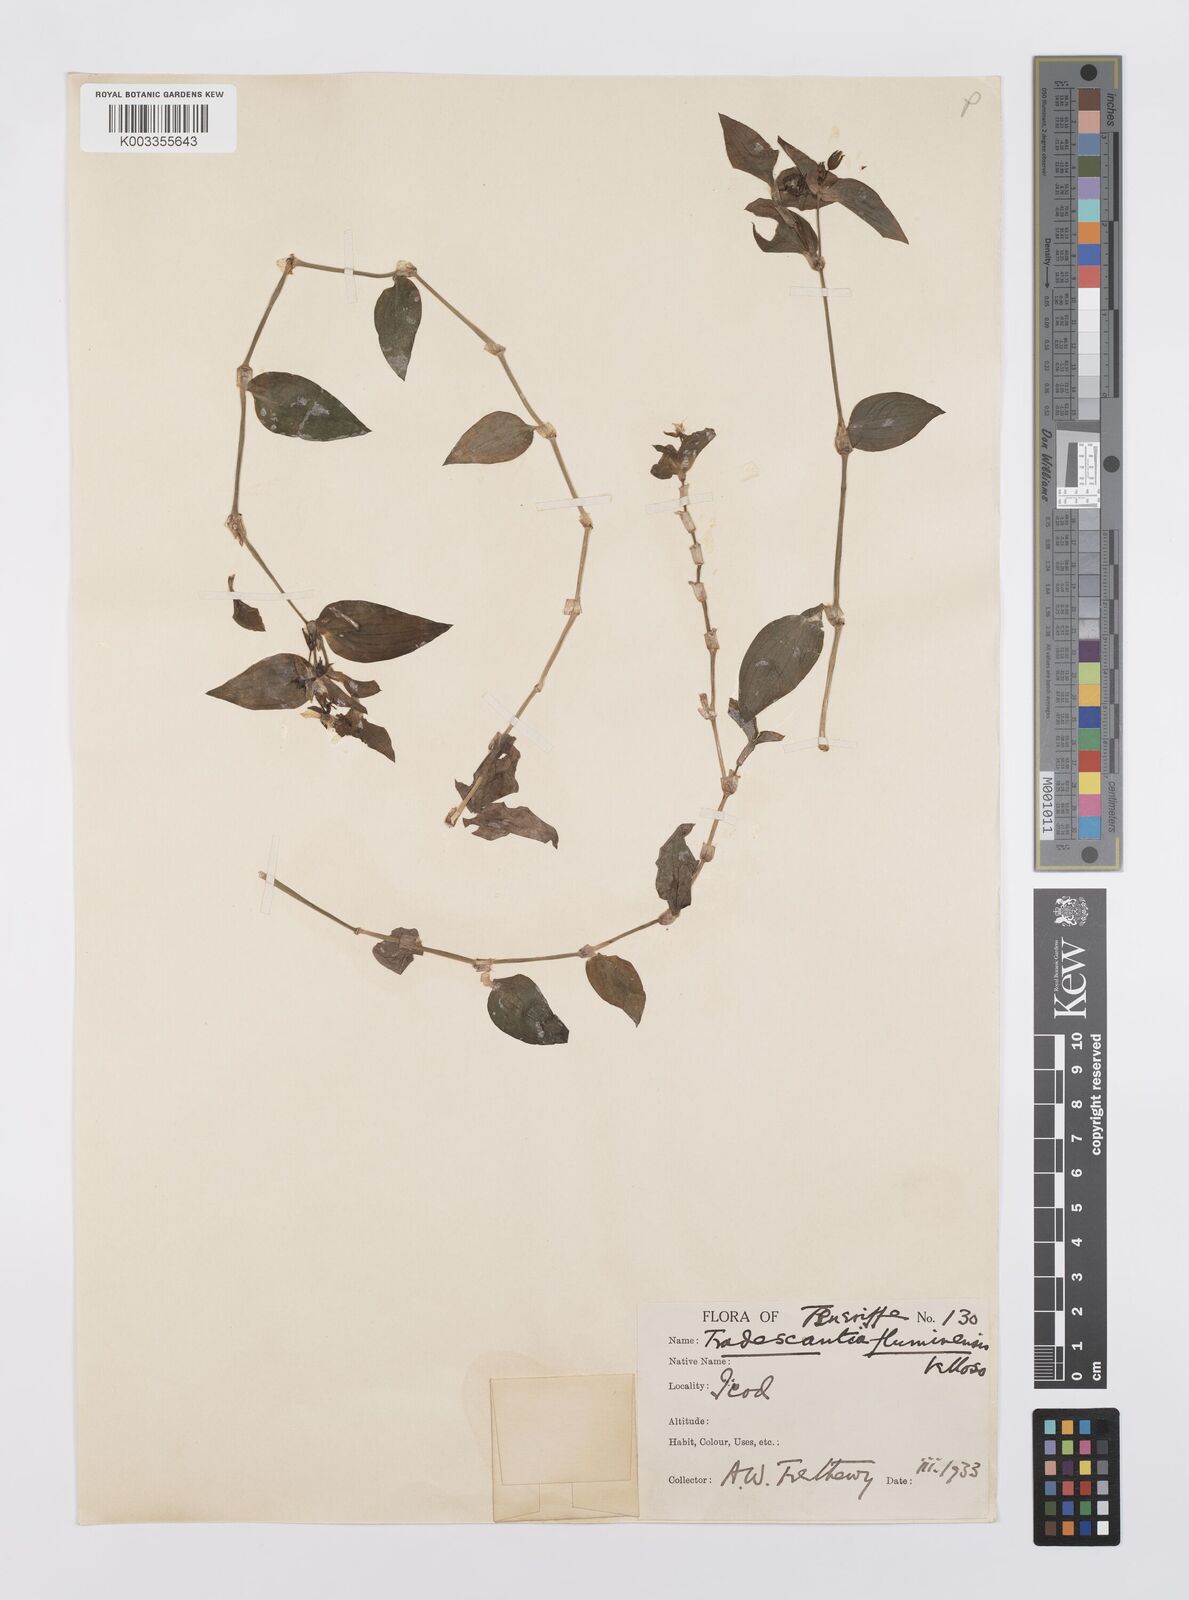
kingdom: Plantae
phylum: Tracheophyta
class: Liliopsida
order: Commelinales
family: Commelinaceae
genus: Tradescantia
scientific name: Tradescantia fluminensis
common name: Wandering-jew
